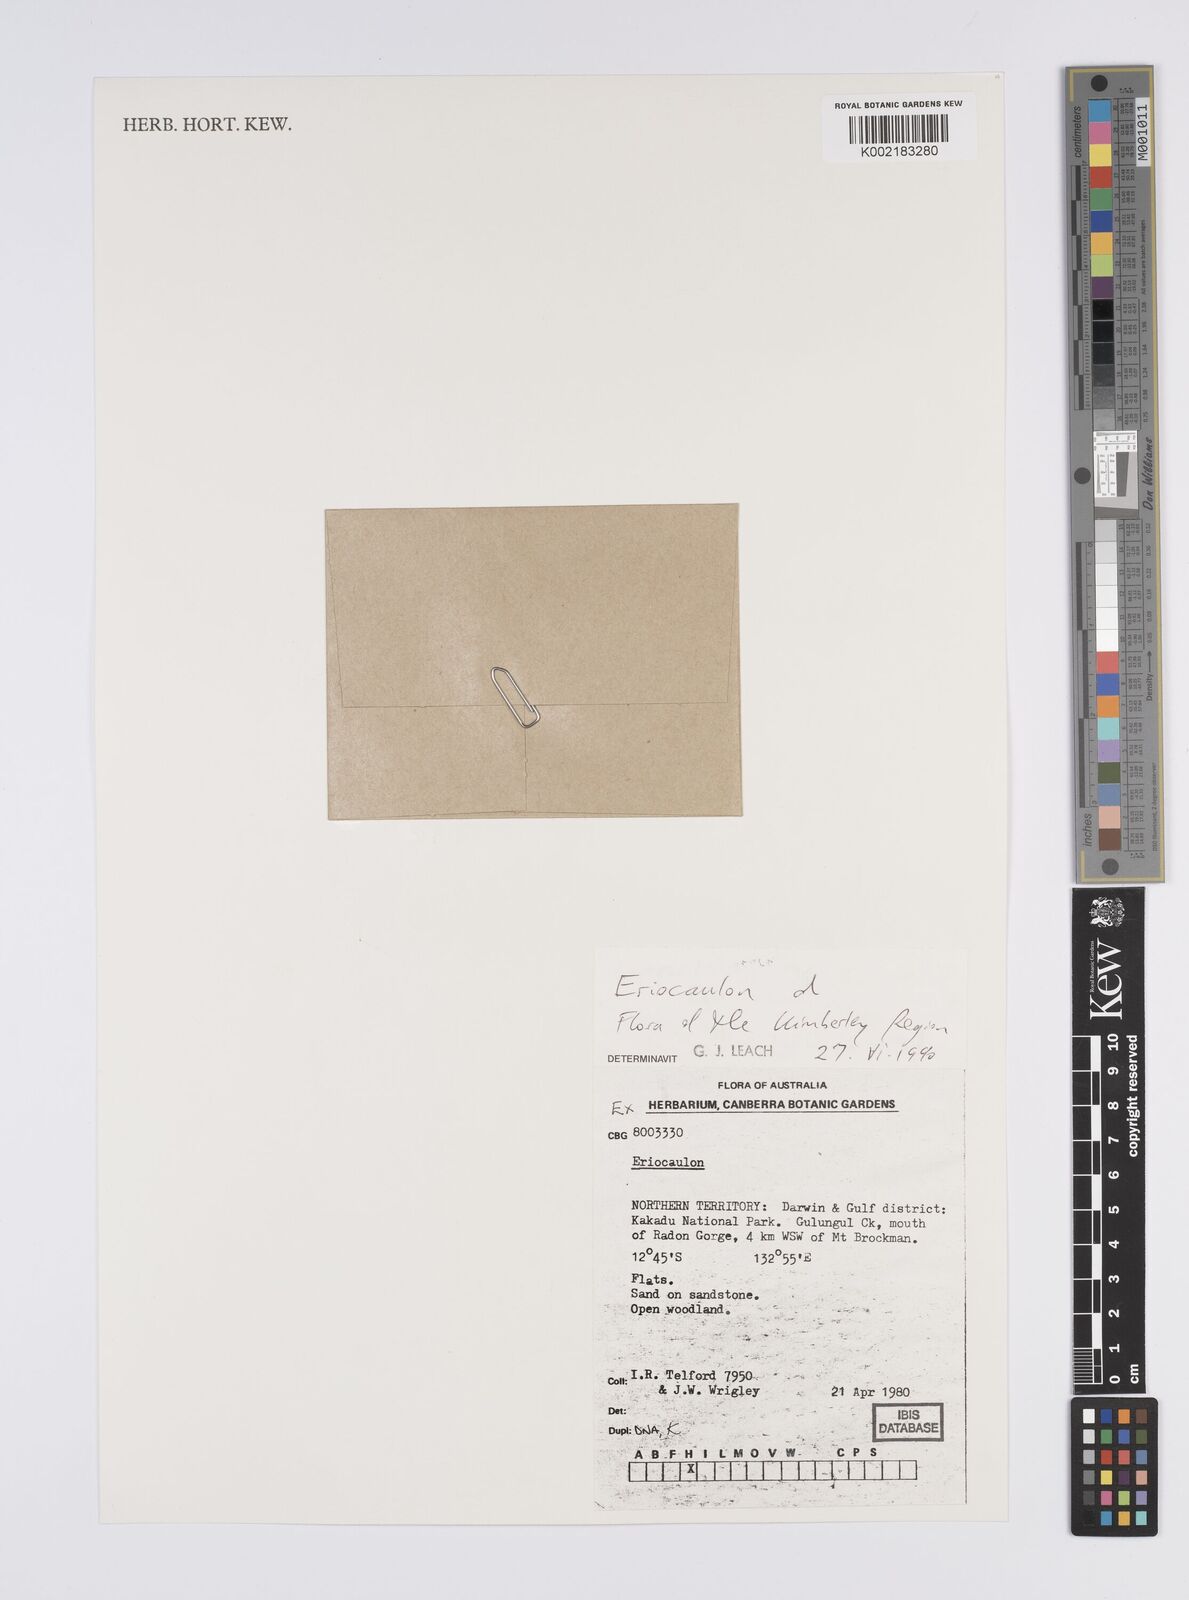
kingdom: Plantae
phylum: Tracheophyta
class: Liliopsida
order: Poales
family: Eriocaulaceae
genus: Eriocaulon
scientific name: Eriocaulon
